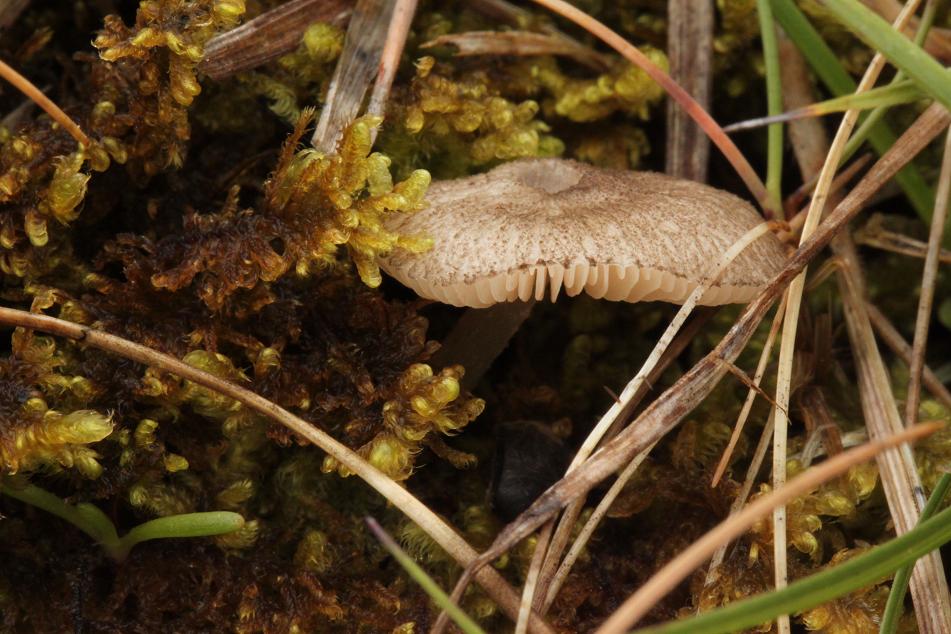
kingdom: Fungi
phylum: Basidiomycota
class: Agaricomycetes
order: Agaricales
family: Pluteaceae
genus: Pluteus
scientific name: Pluteus exiguus
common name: finskællet skærmhat
